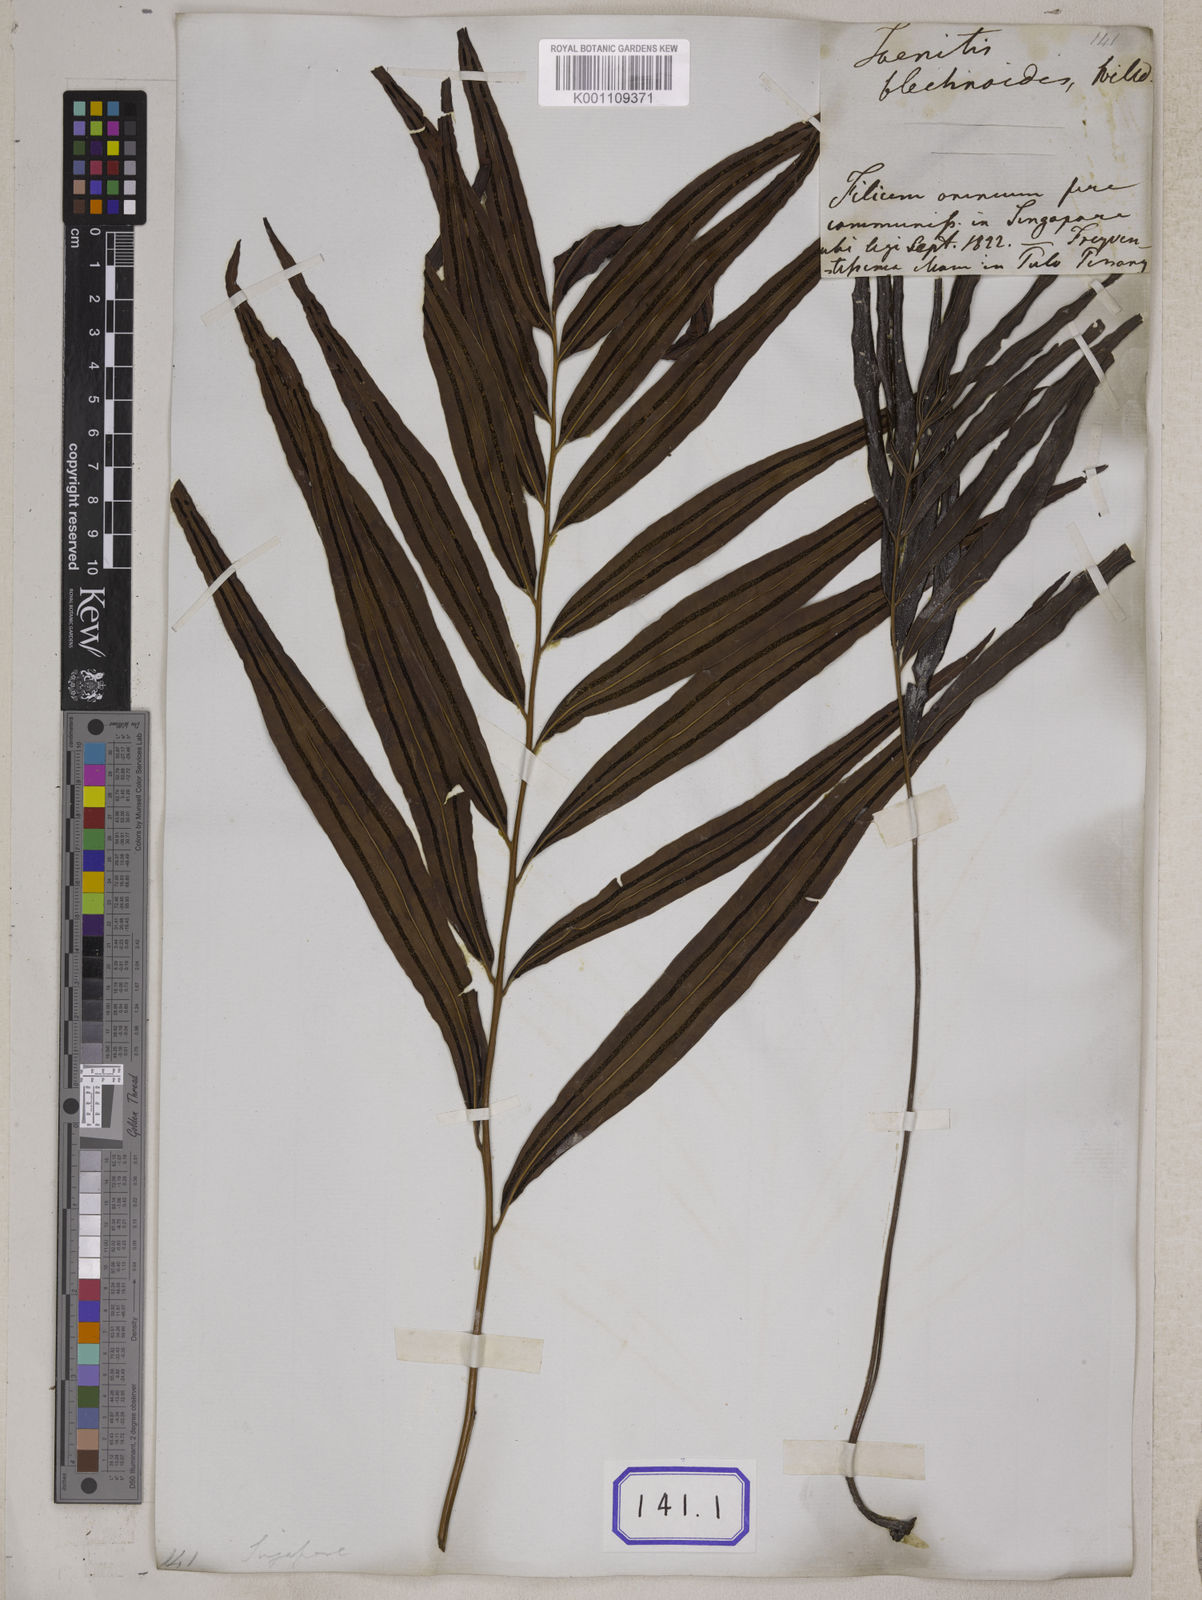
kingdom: Plantae
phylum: Tracheophyta
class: Polypodiopsida
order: Polypodiales
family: Pteridaceae
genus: Taenitis
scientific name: Taenitis blechnoides
